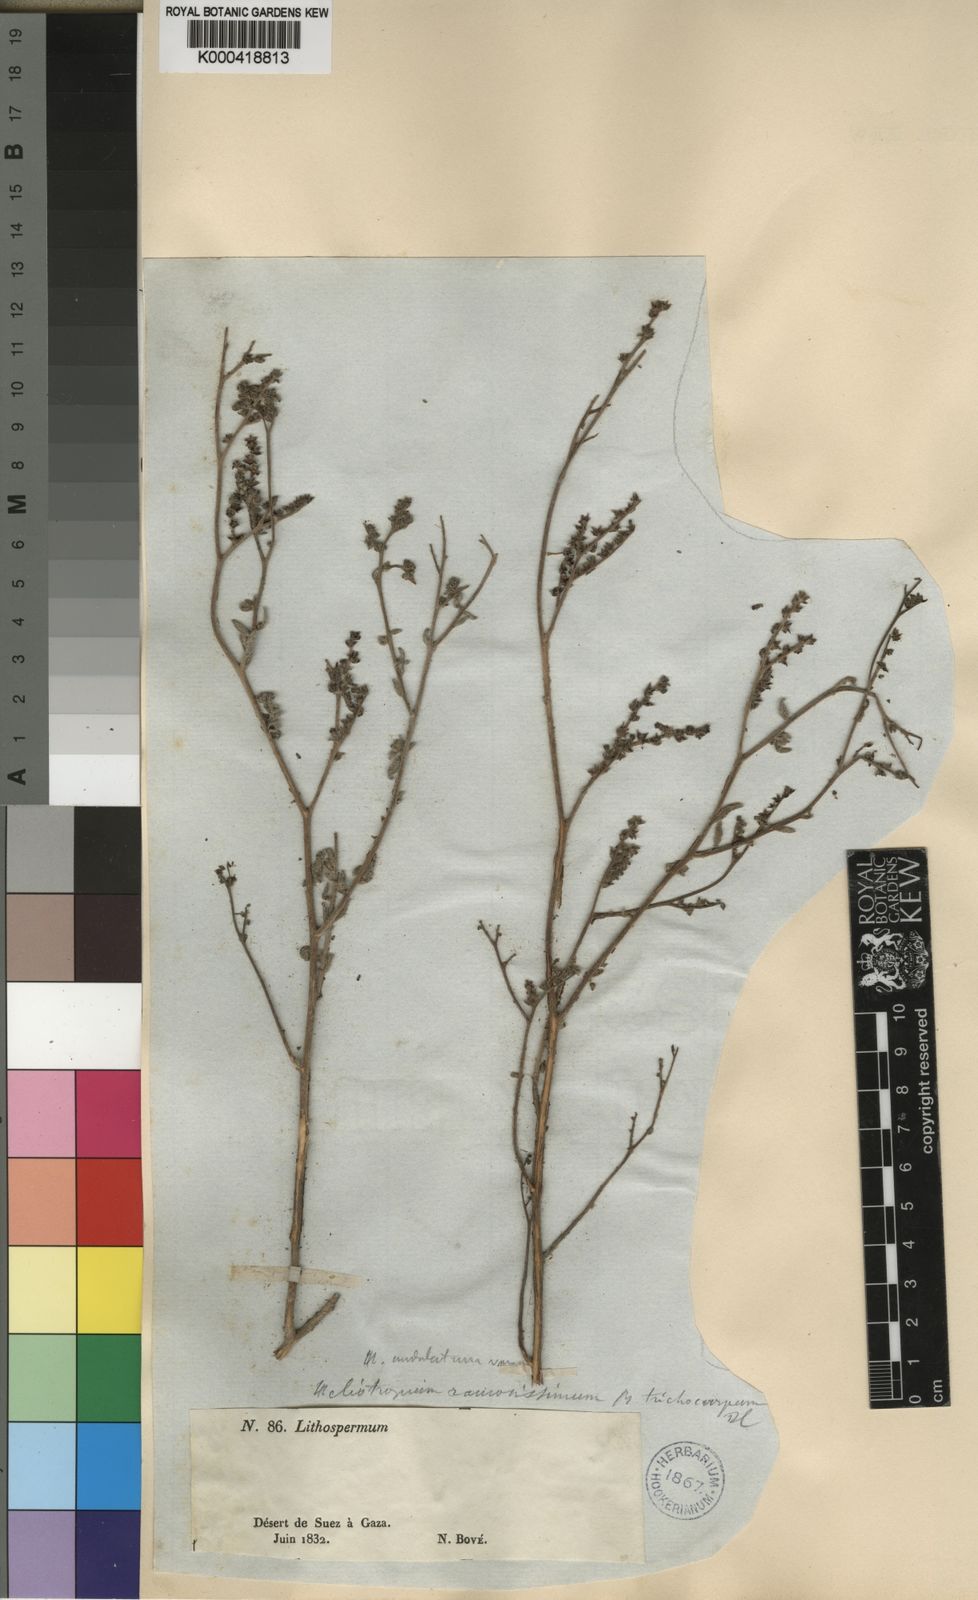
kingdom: Plantae
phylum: Tracheophyta
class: Magnoliopsida
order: Boraginales
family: Heliotropiaceae
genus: Heliotropium
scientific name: Heliotropium
